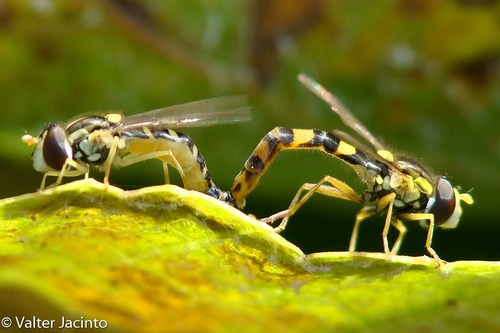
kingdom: Animalia
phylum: Arthropoda
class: Insecta
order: Diptera
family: Syrphidae
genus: Sphaerophoria
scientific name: Sphaerophoria scripta
